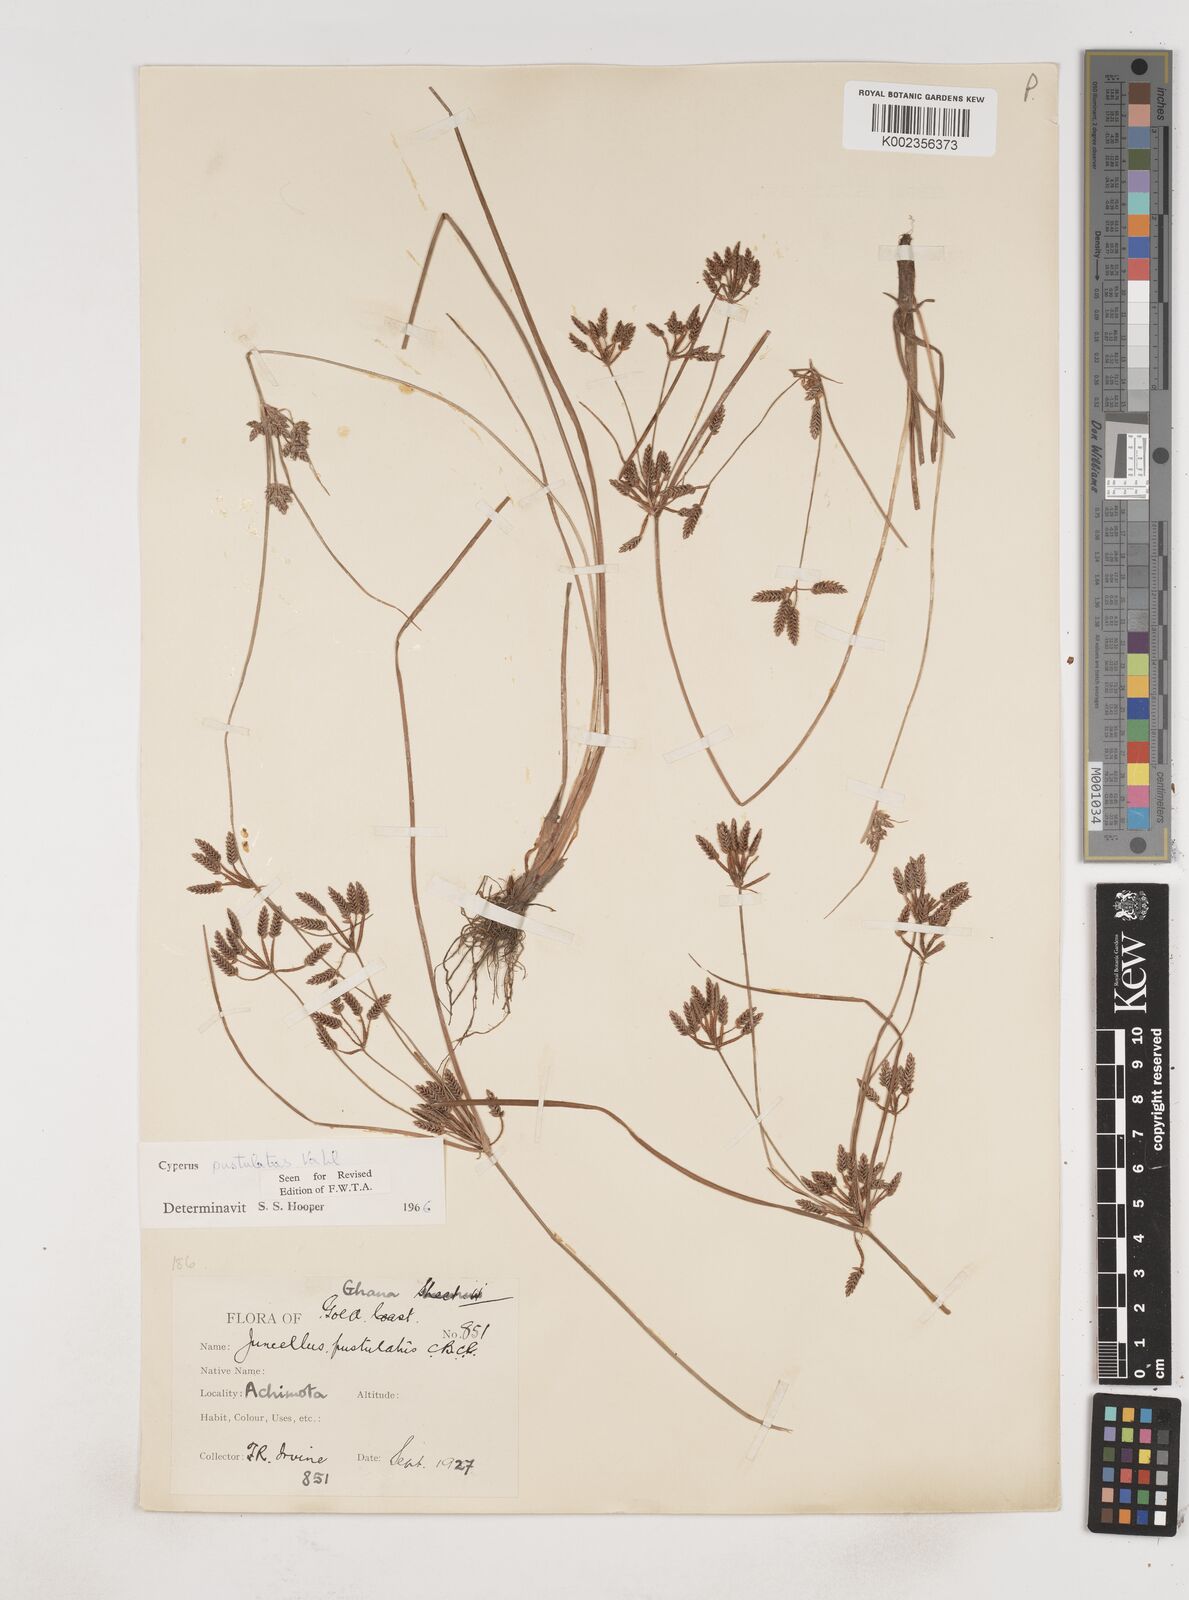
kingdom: Plantae
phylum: Tracheophyta
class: Liliopsida
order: Poales
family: Cyperaceae
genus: Cyperus
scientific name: Cyperus pustulatus
